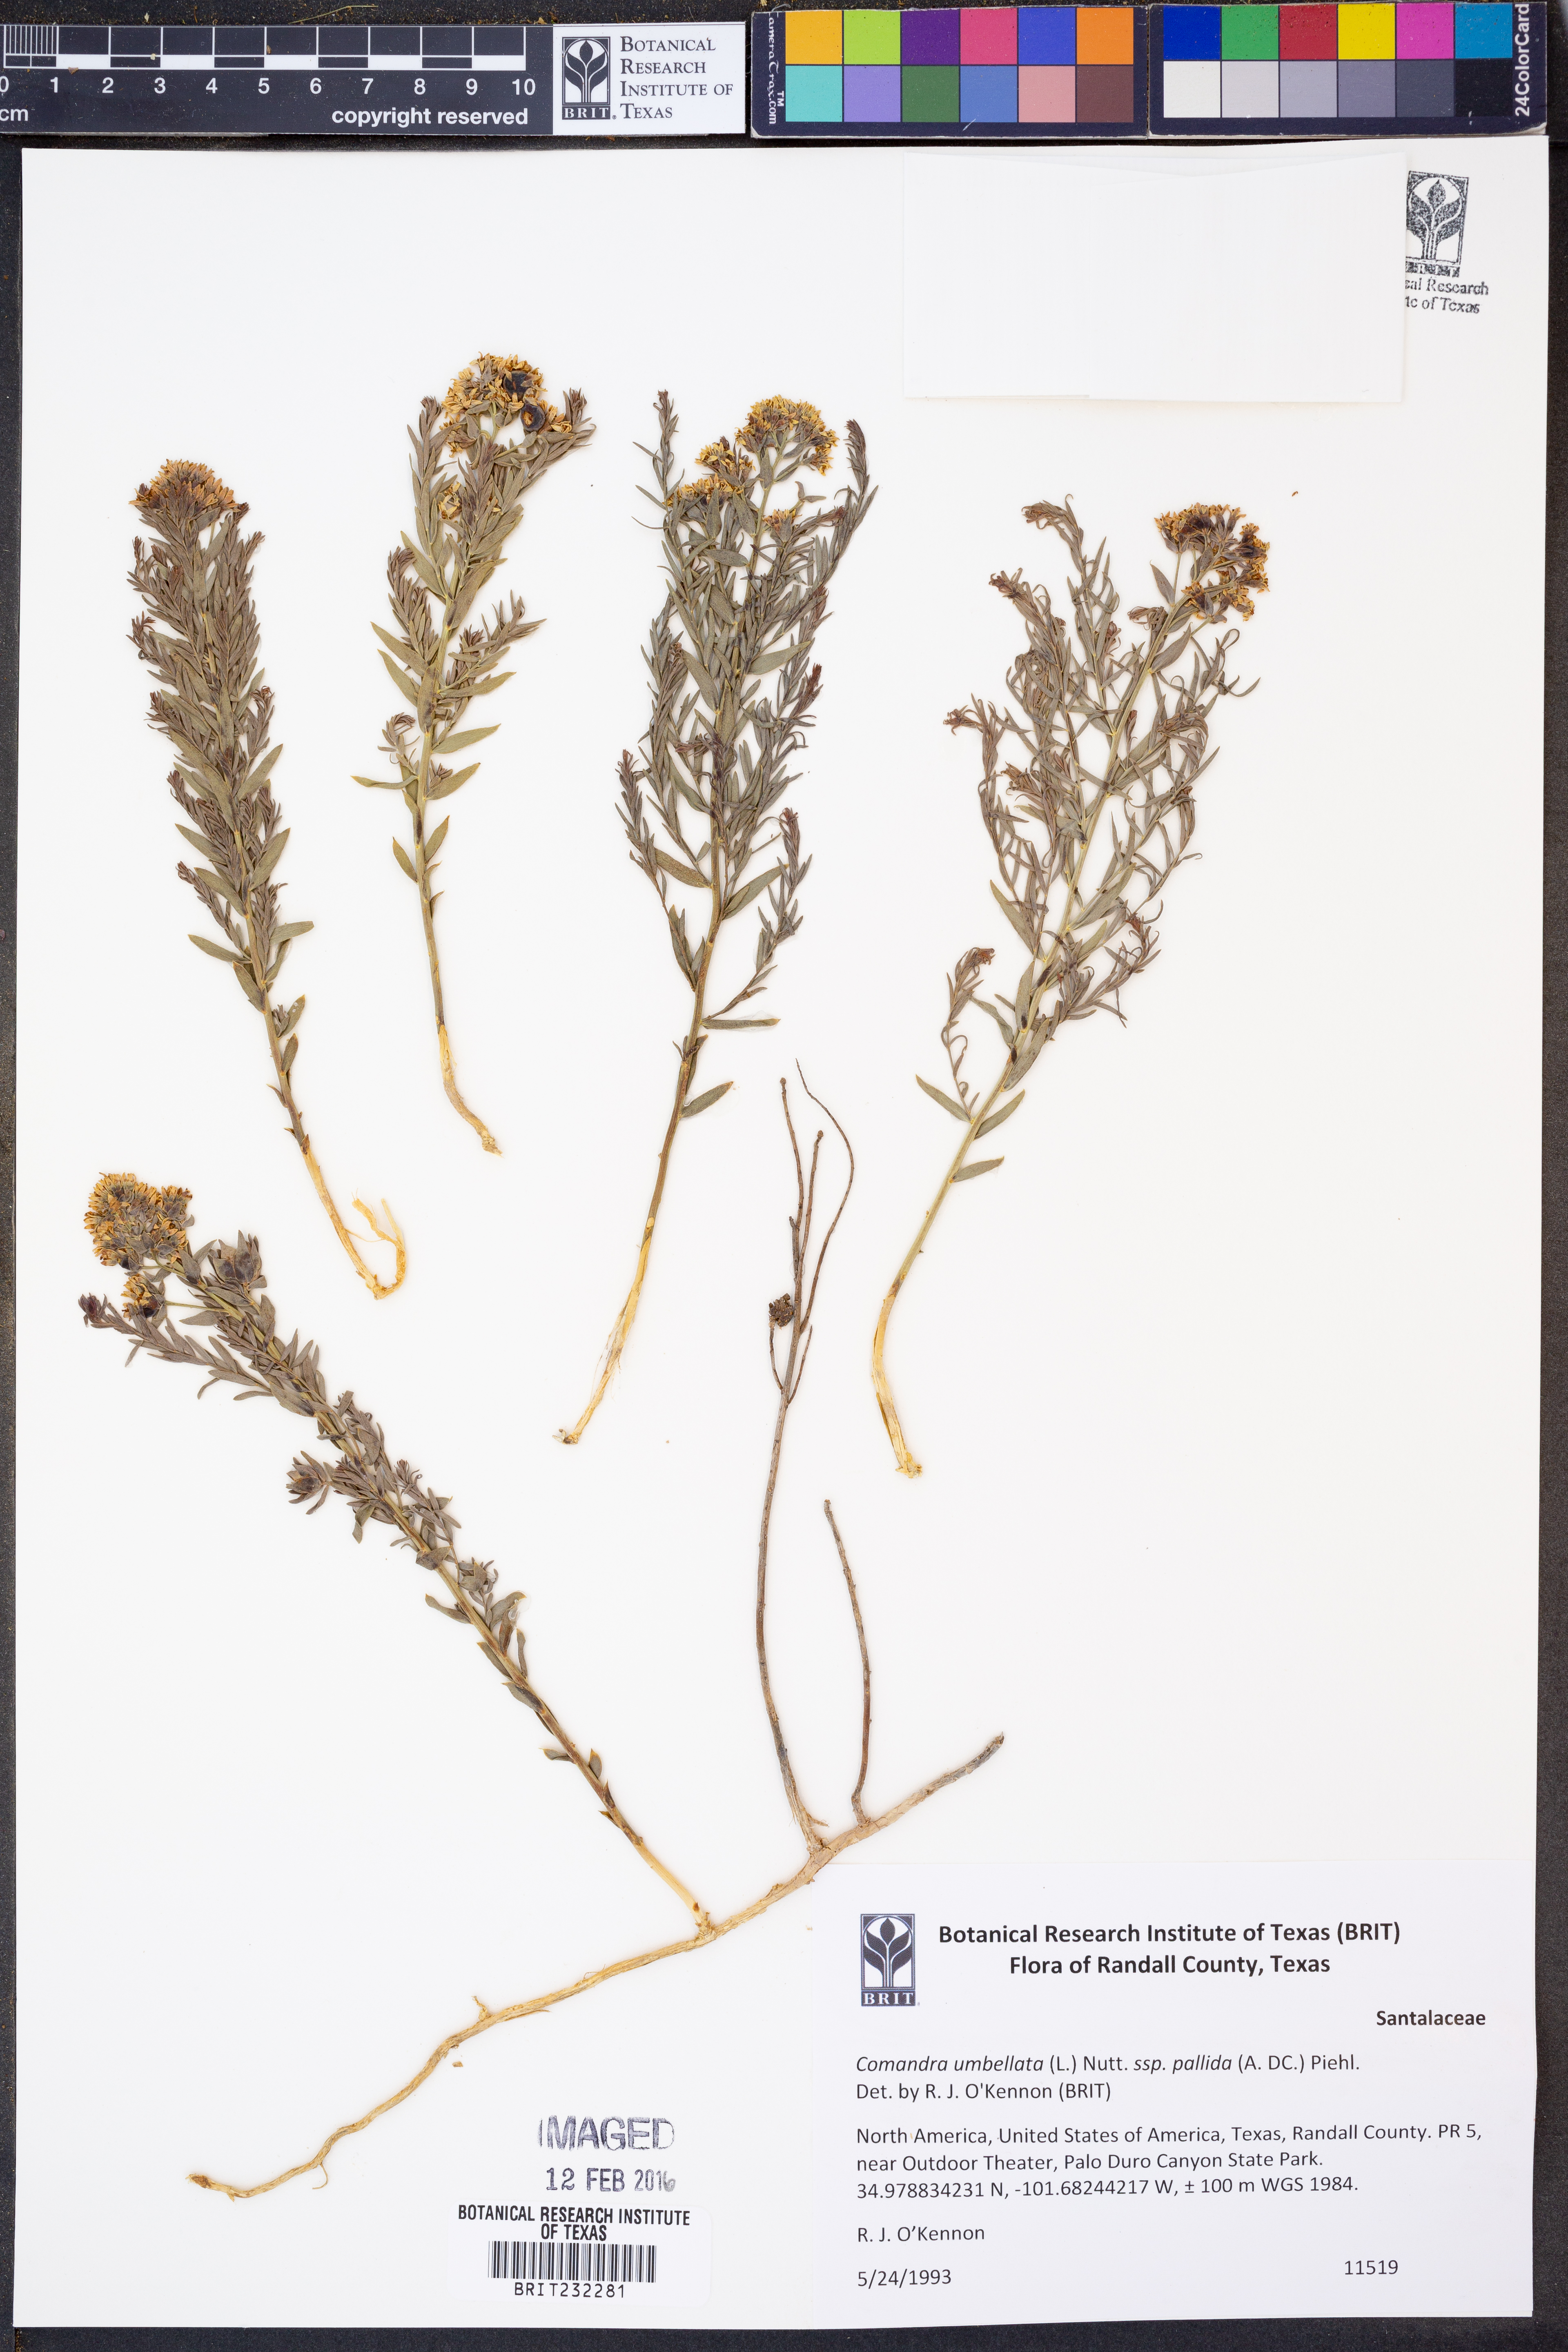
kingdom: Plantae
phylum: Tracheophyta
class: Magnoliopsida
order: Santalales
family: Comandraceae
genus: Comandra
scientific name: Comandra umbellata
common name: Bastard toadflax
